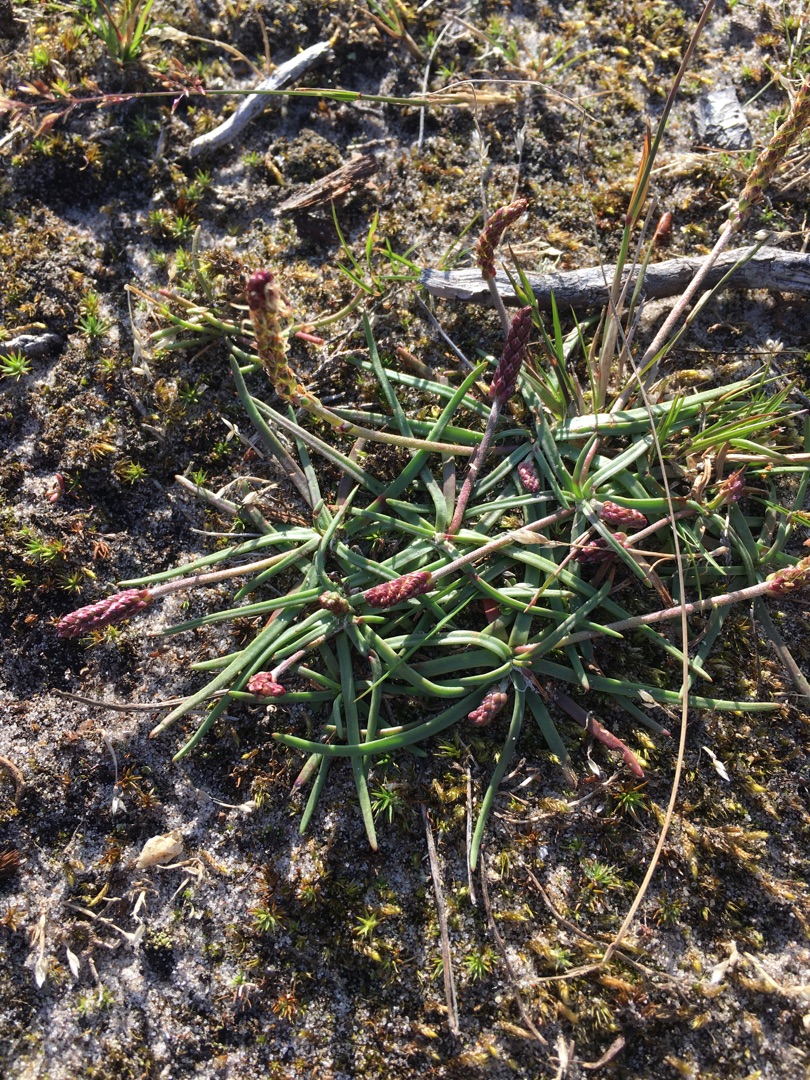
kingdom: Plantae
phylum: Tracheophyta
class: Magnoliopsida
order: Lamiales
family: Plantaginaceae
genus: Plantago
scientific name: Plantago maritima
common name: Strand-vejbred
